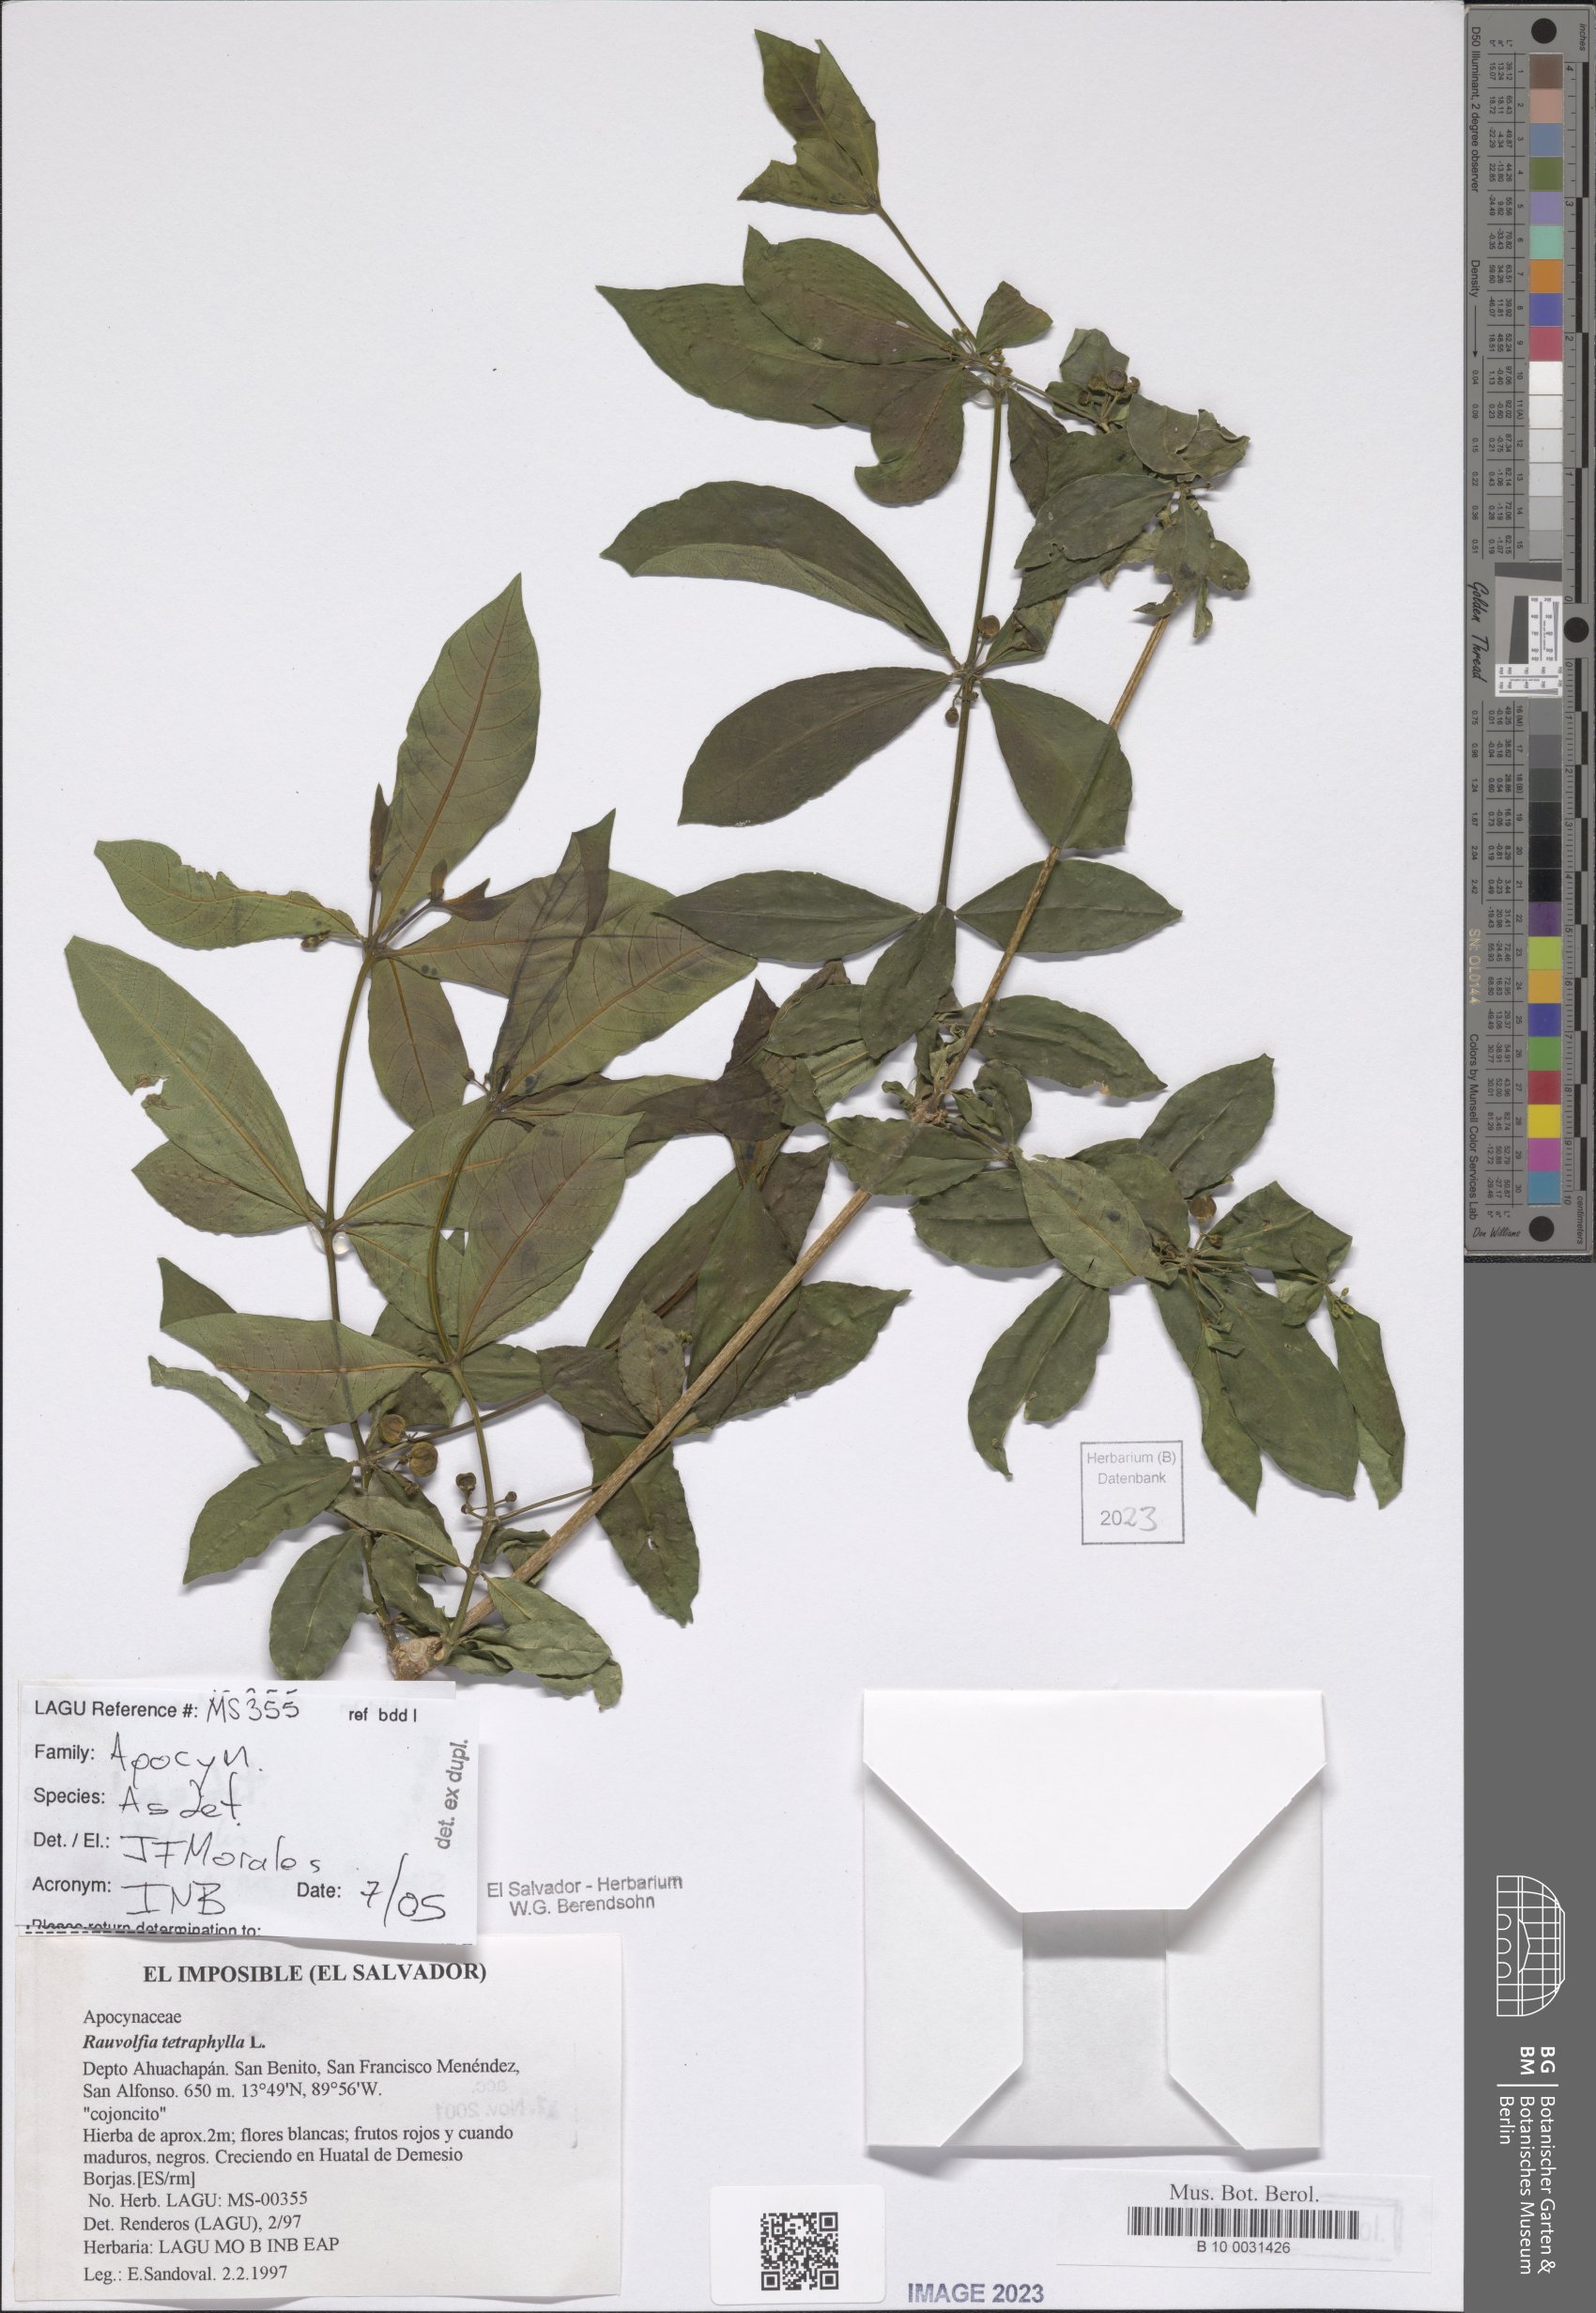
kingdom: Plantae
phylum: Tracheophyta
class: Magnoliopsida
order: Gentianales
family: Apocynaceae
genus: Rauvolfia
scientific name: Rauvolfia tetraphylla
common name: Four-leaf devil-pepper
